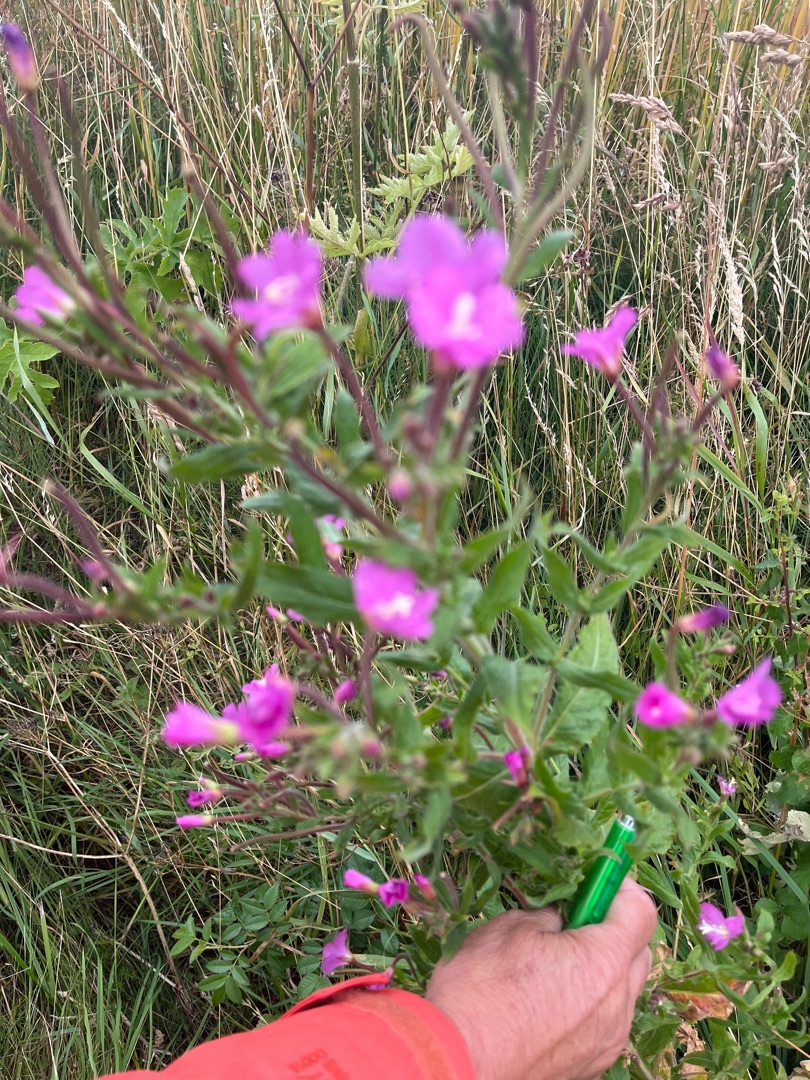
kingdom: Plantae
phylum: Tracheophyta
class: Magnoliopsida
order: Myrtales
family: Onagraceae
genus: Epilobium
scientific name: Epilobium hirsutum
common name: Lådden dueurt
